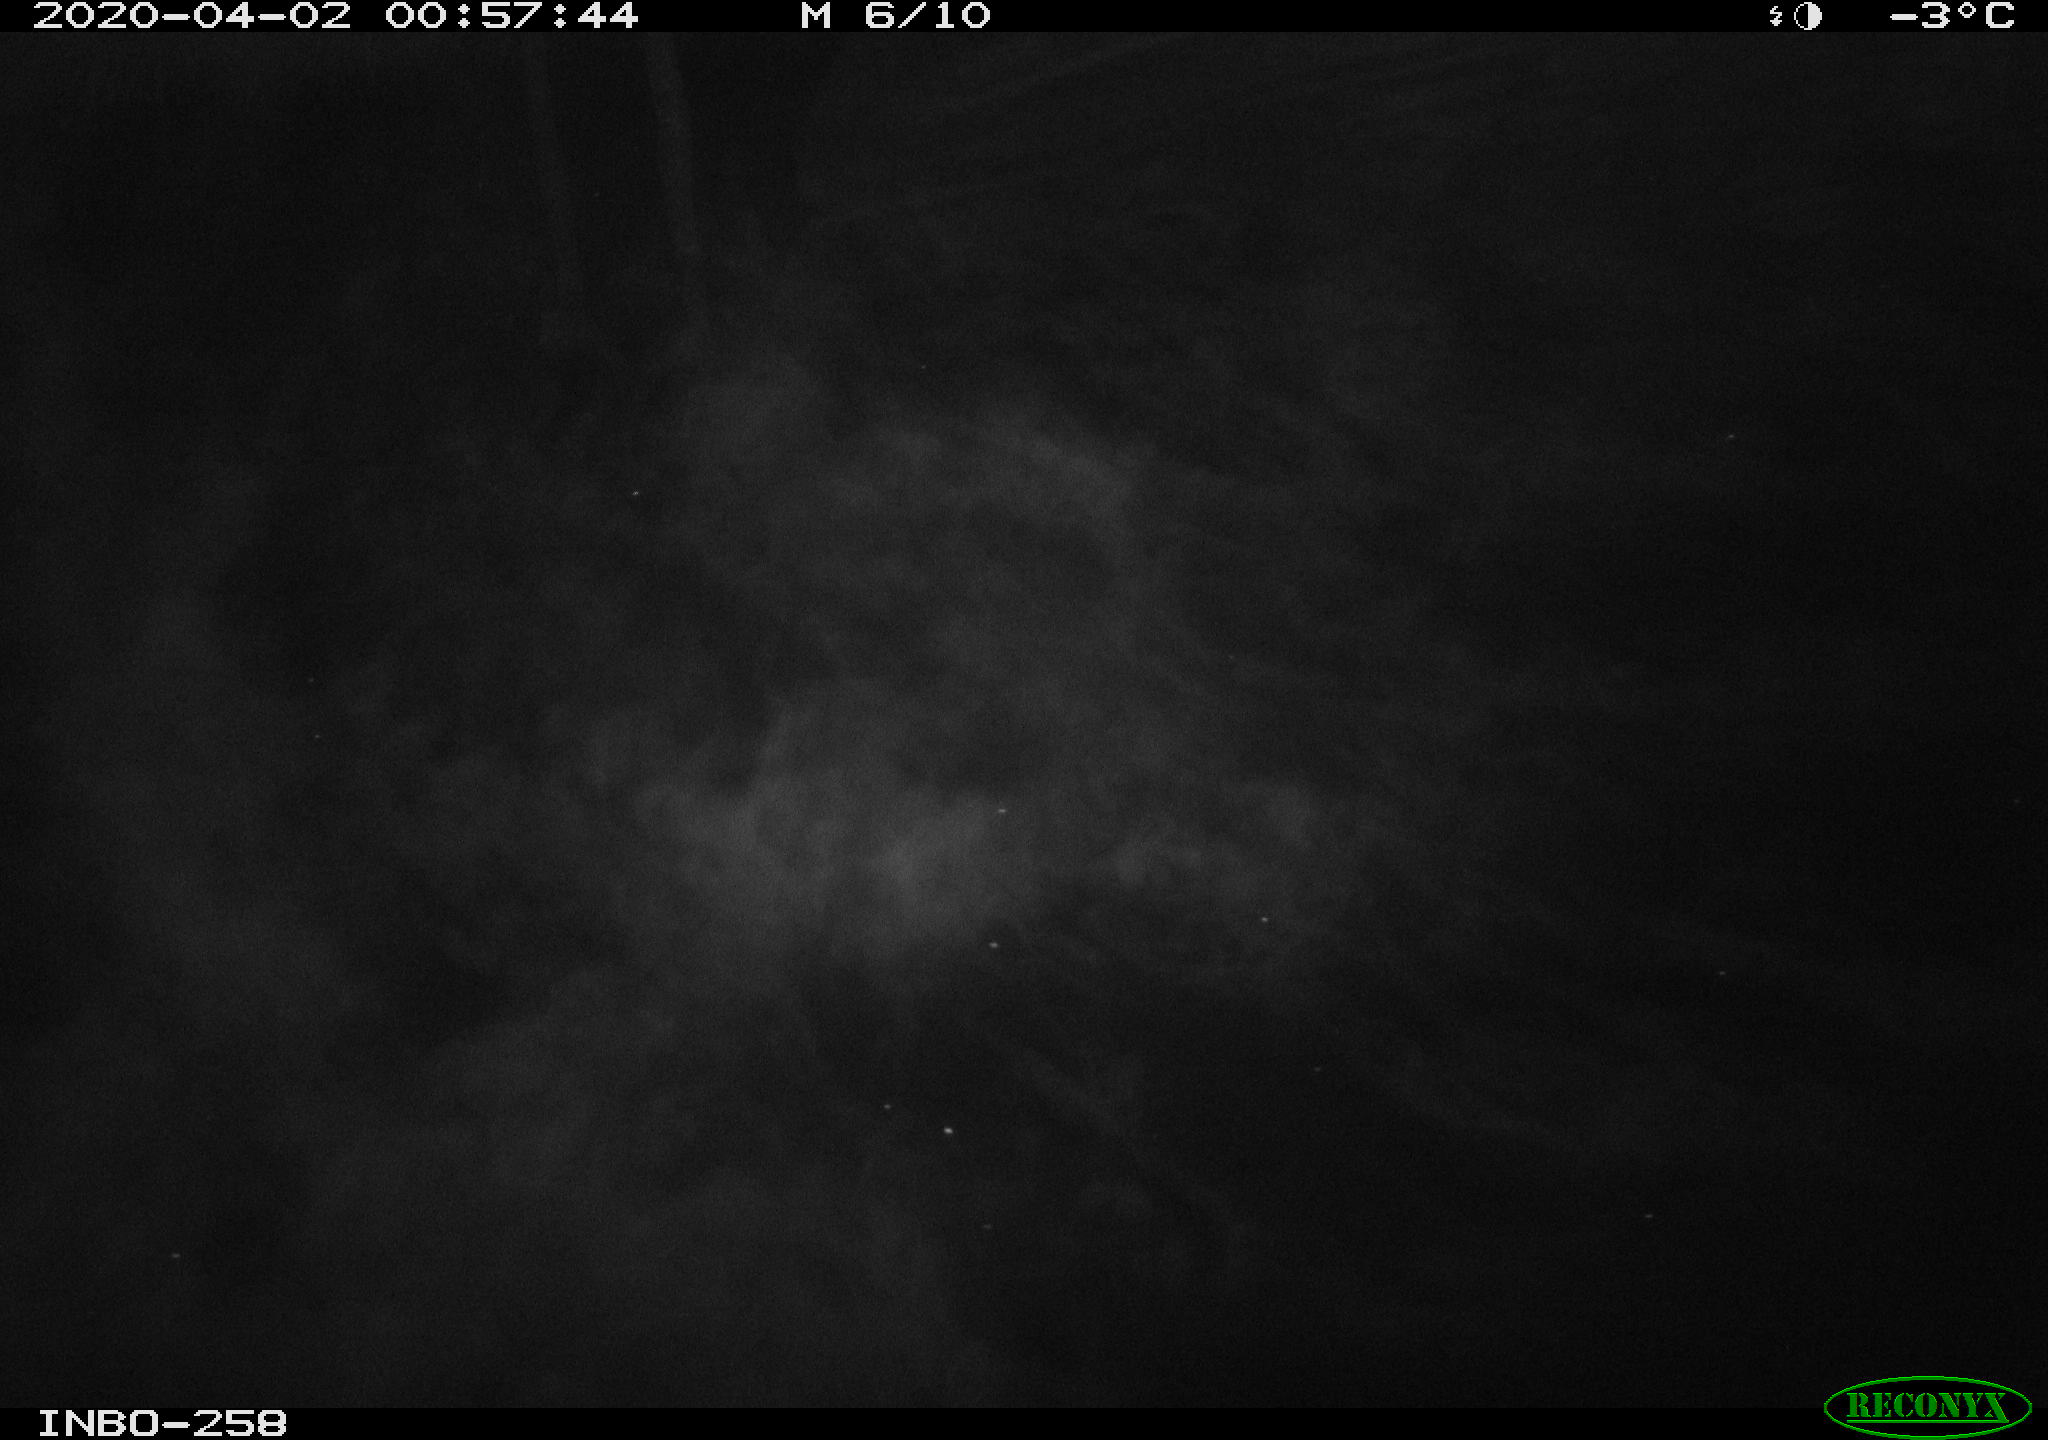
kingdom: Animalia
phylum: Chordata
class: Aves
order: Anseriformes
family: Anatidae
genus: Anas
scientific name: Anas platyrhynchos
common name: Mallard
